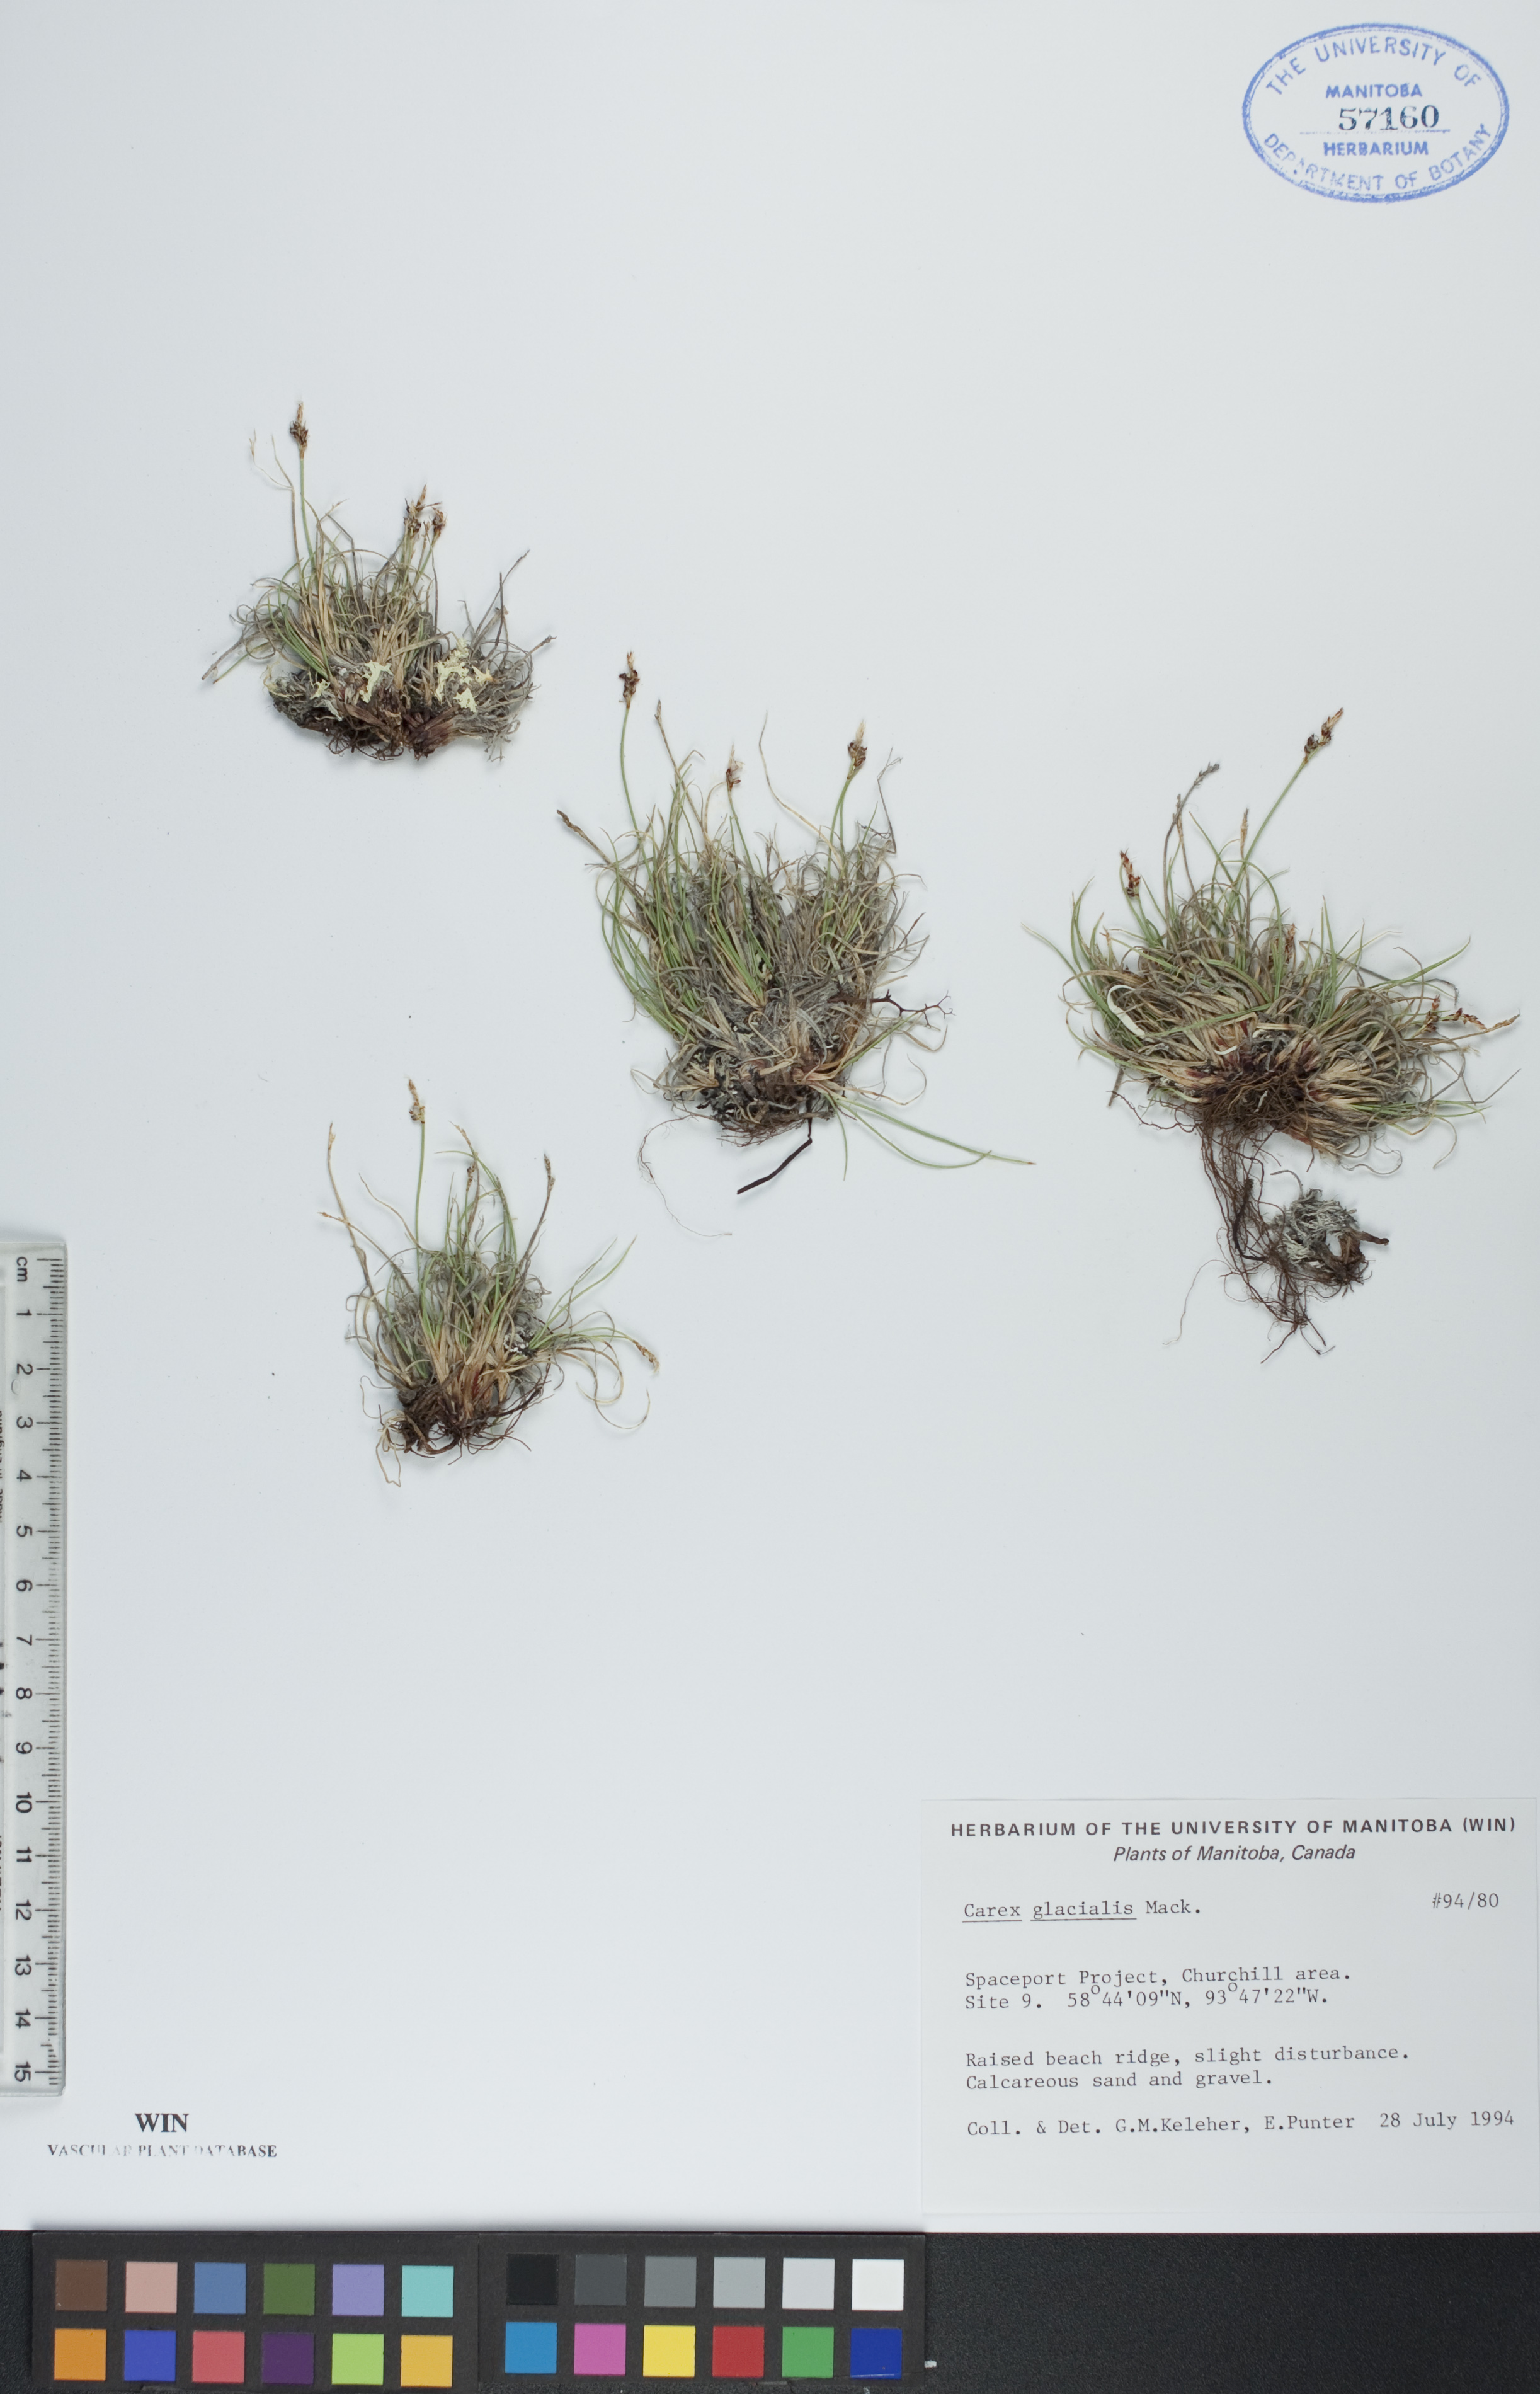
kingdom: Plantae
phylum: Tracheophyta
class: Liliopsida
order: Poales
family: Cyperaceae
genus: Carex
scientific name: Carex glacialis
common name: Newfoundland sedge
